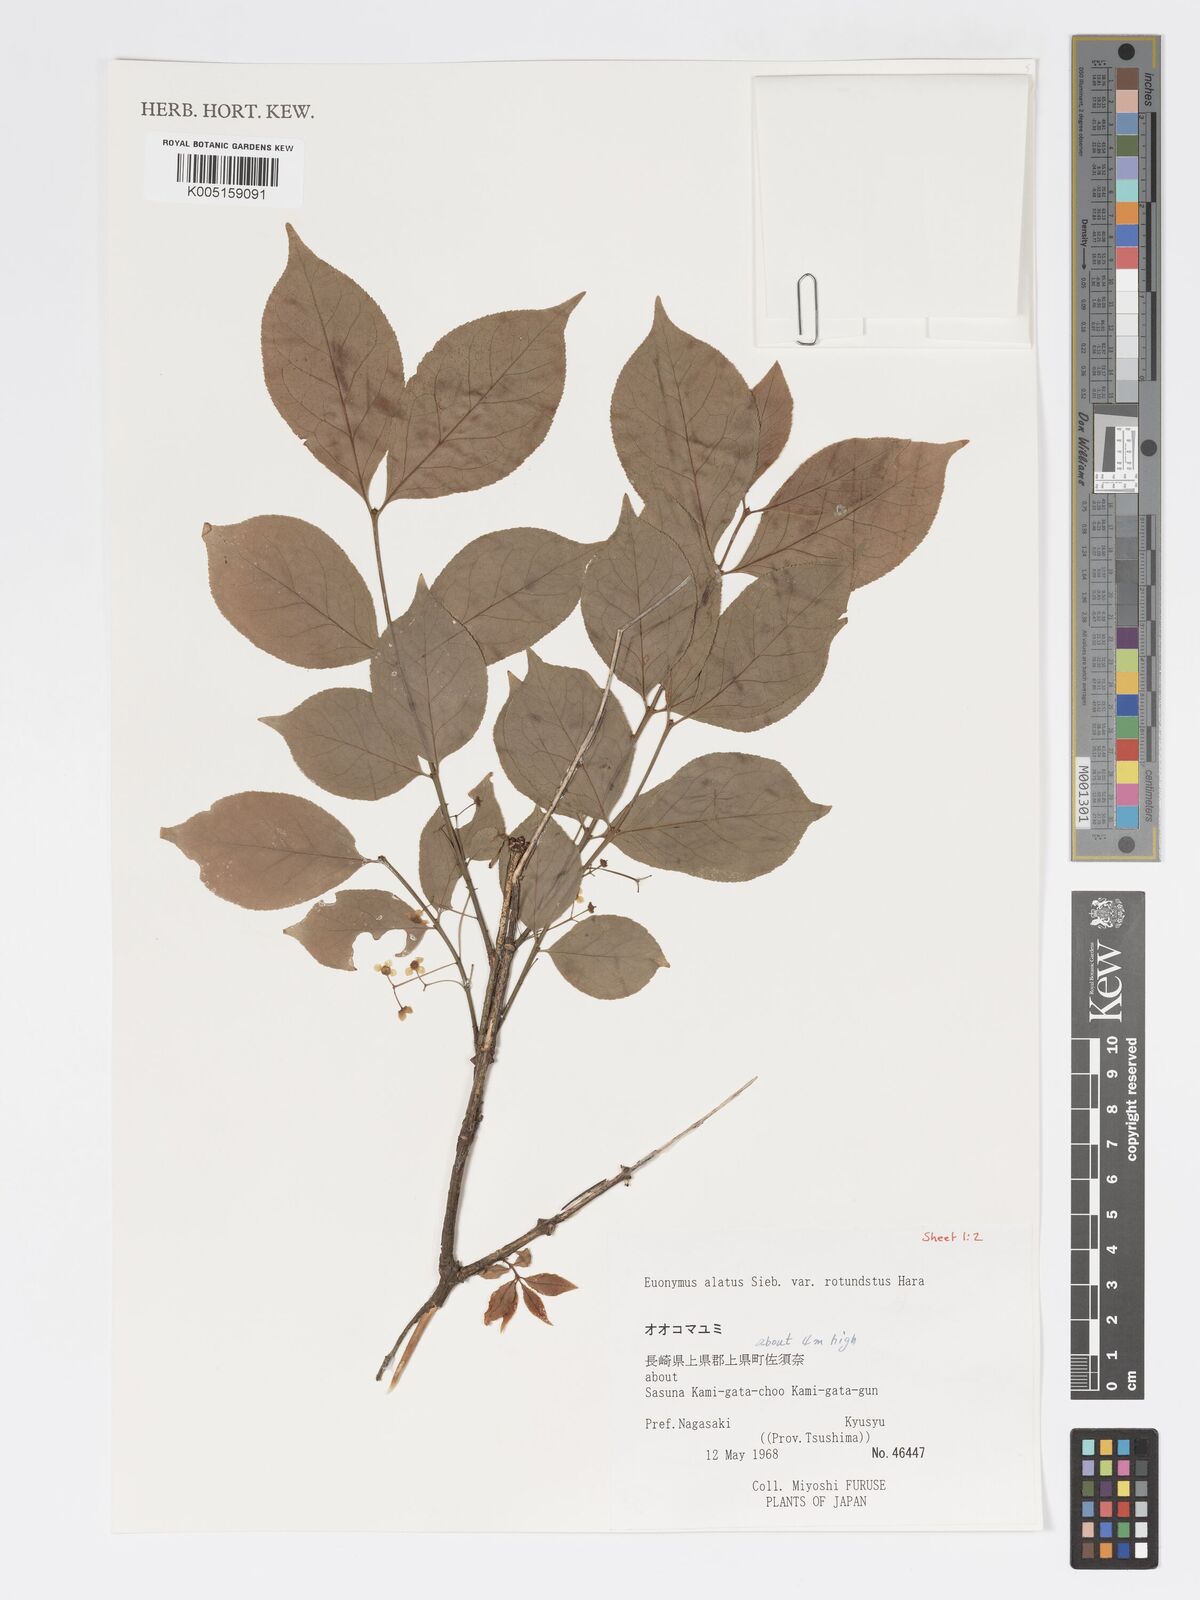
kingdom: Plantae
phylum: Tracheophyta
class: Magnoliopsida
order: Celastrales
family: Celastraceae
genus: Euonymus
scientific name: Euonymus
